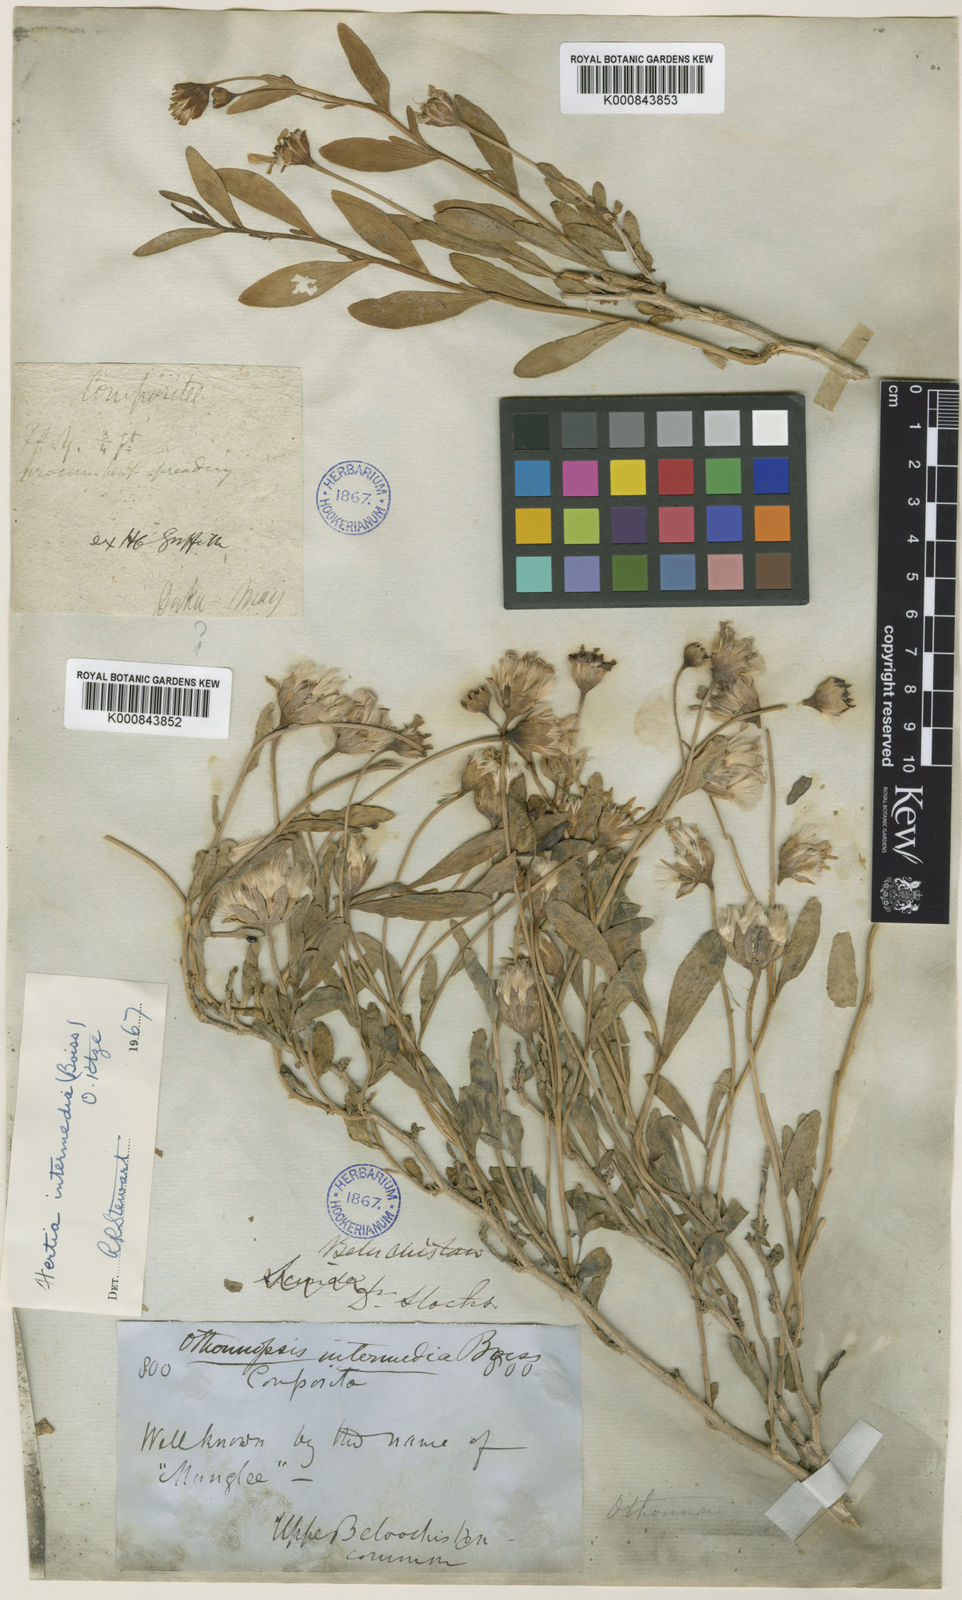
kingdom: Plantae
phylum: Tracheophyta
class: Magnoliopsida
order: Asterales
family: Asteraceae
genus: Hertia
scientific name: Hertia intermedia
